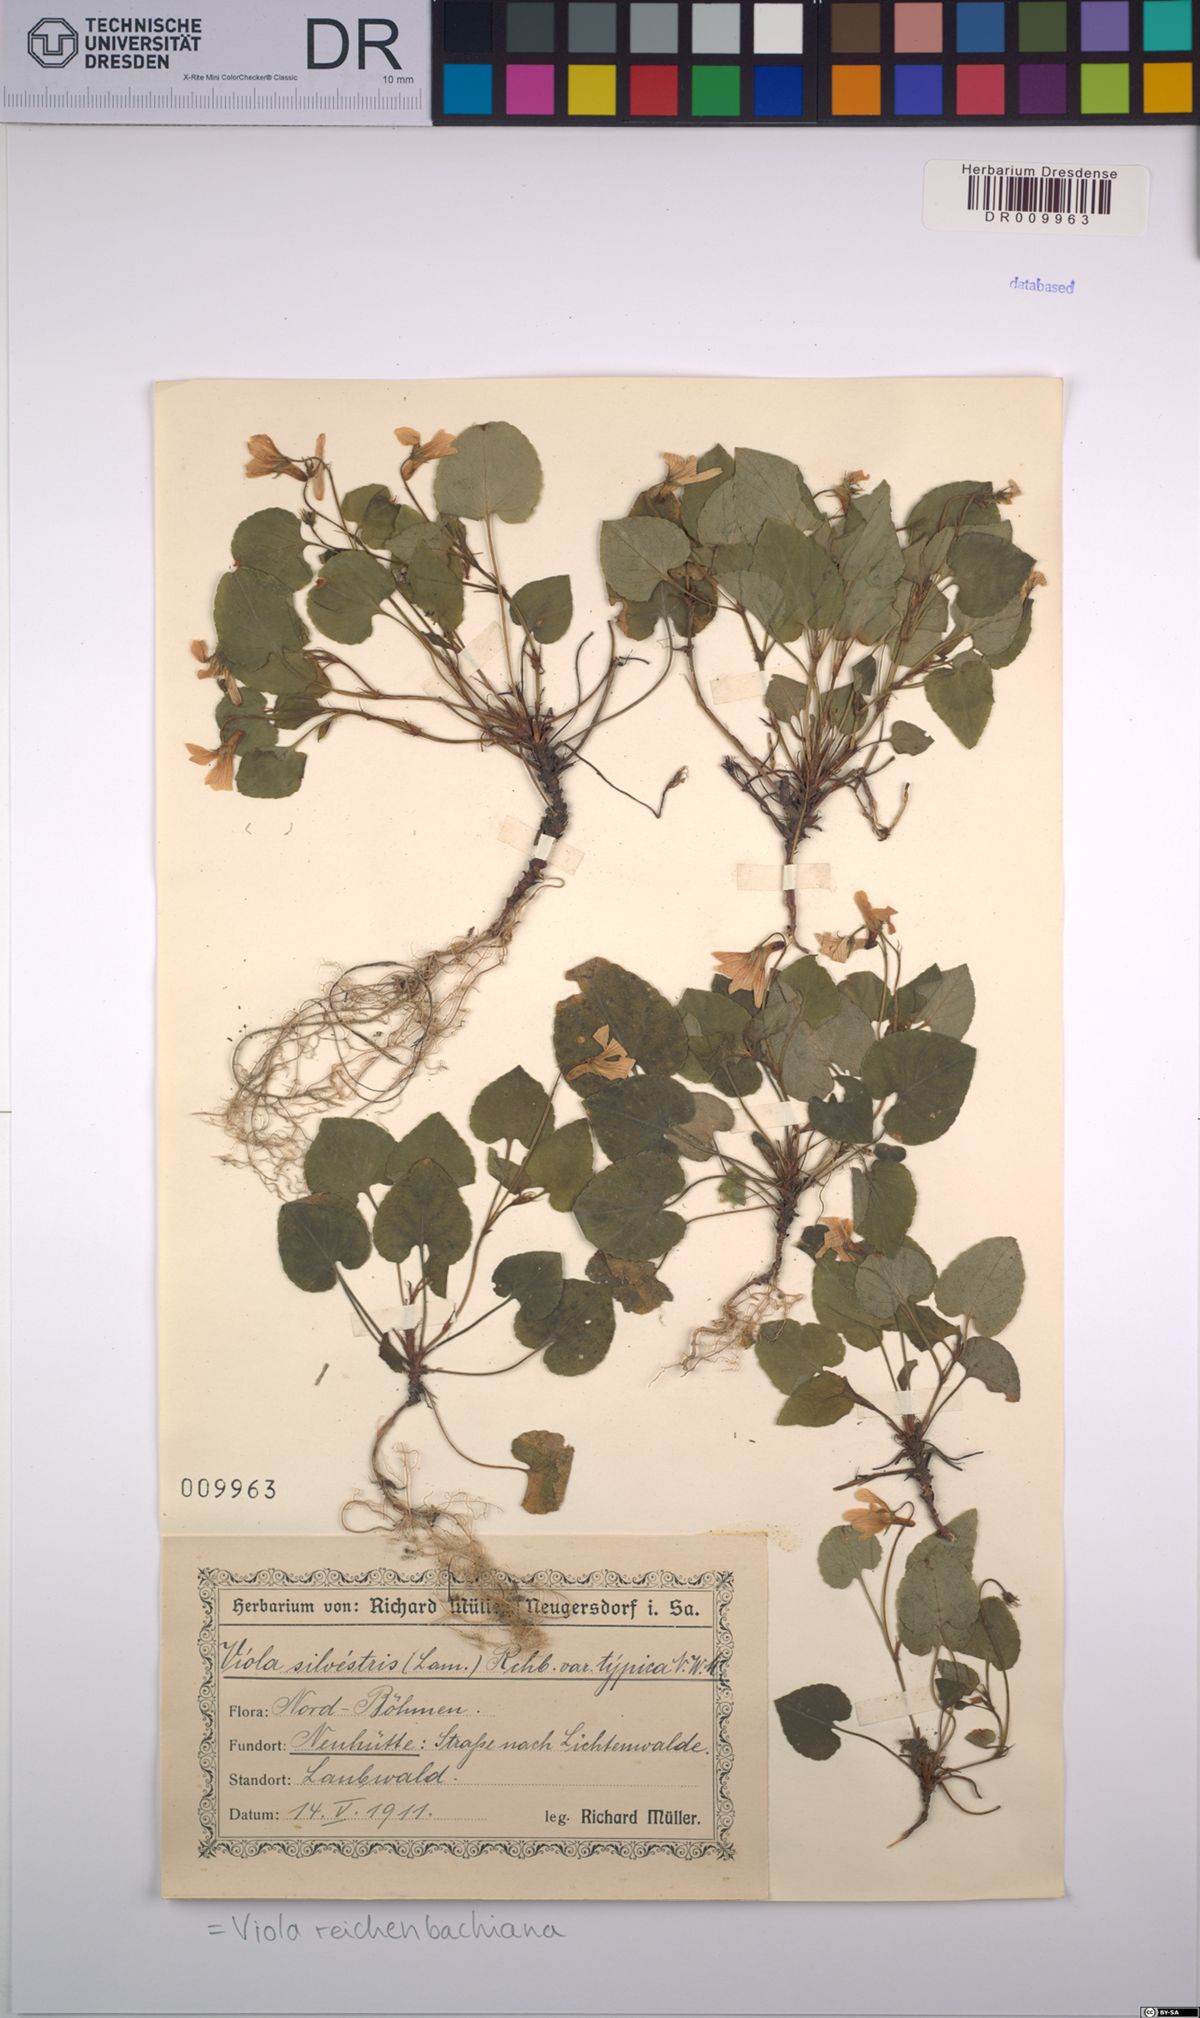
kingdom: Plantae
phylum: Tracheophyta
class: Magnoliopsida
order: Malpighiales
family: Violaceae
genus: Viola
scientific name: Viola reichenbachiana
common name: Early dog-violet
